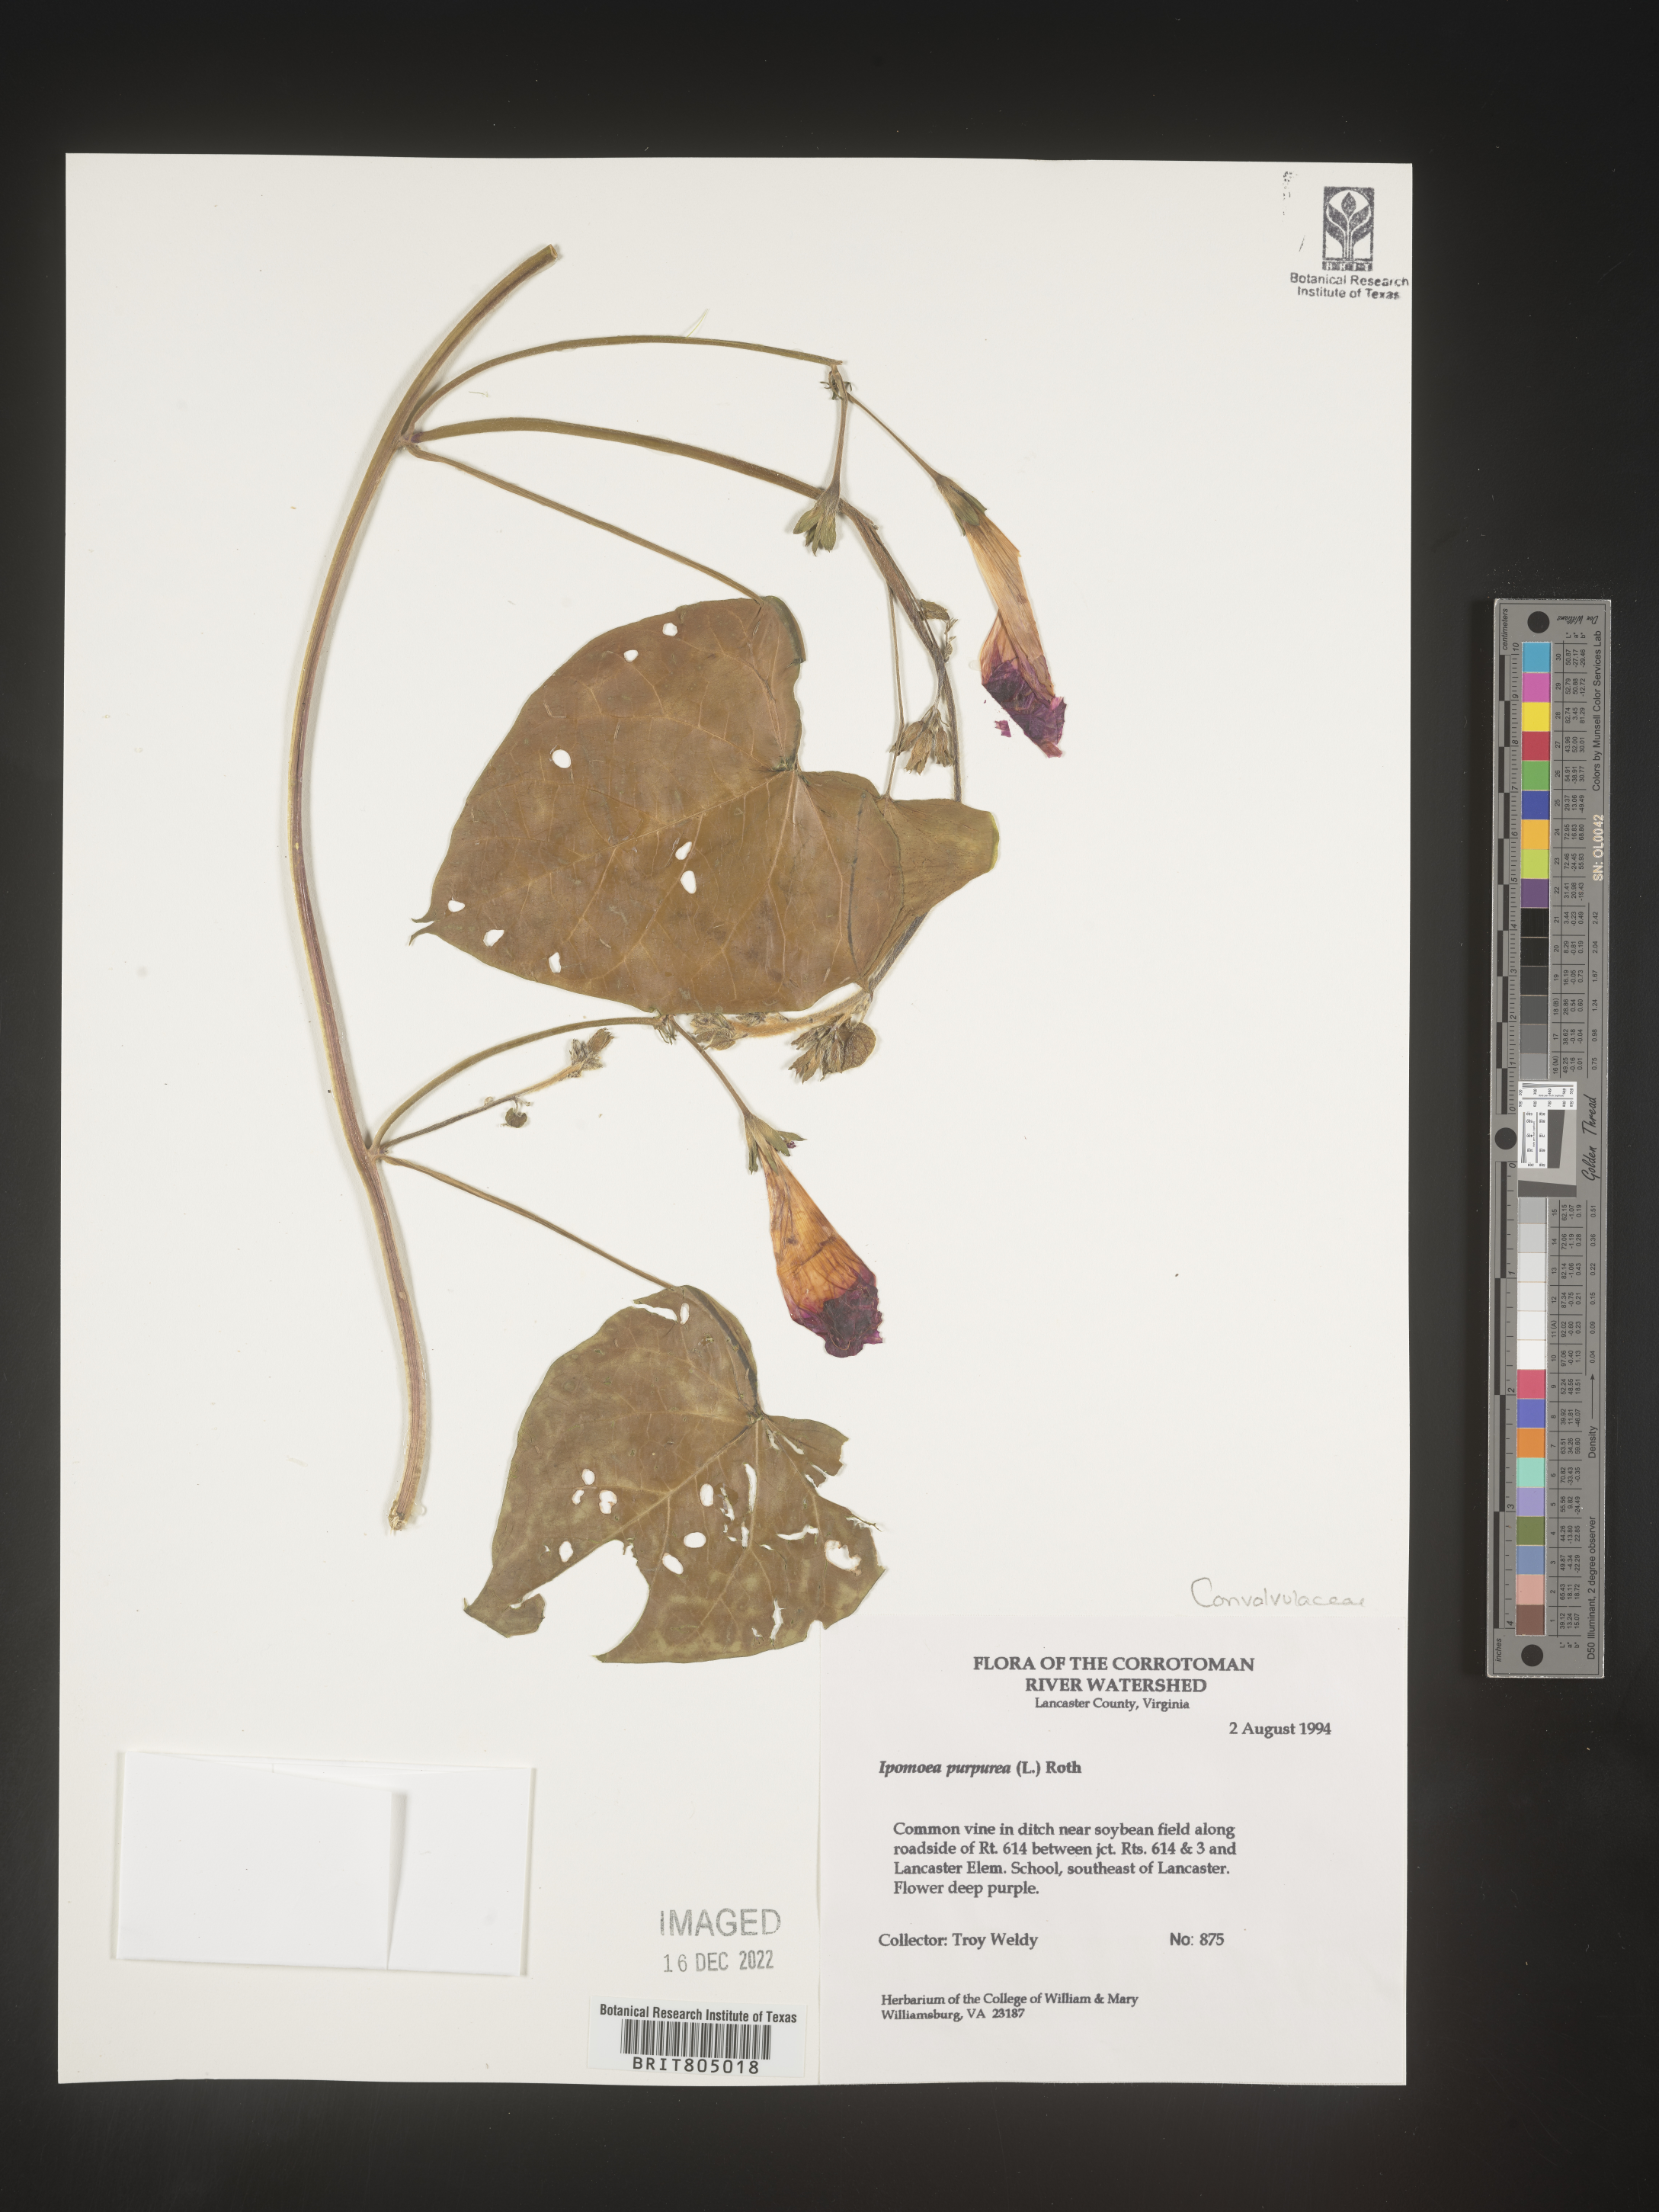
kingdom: Plantae
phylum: Tracheophyta
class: Magnoliopsida
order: Solanales
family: Convolvulaceae
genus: Ipomoea
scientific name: Ipomoea purpurea
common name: Common morning-glory
